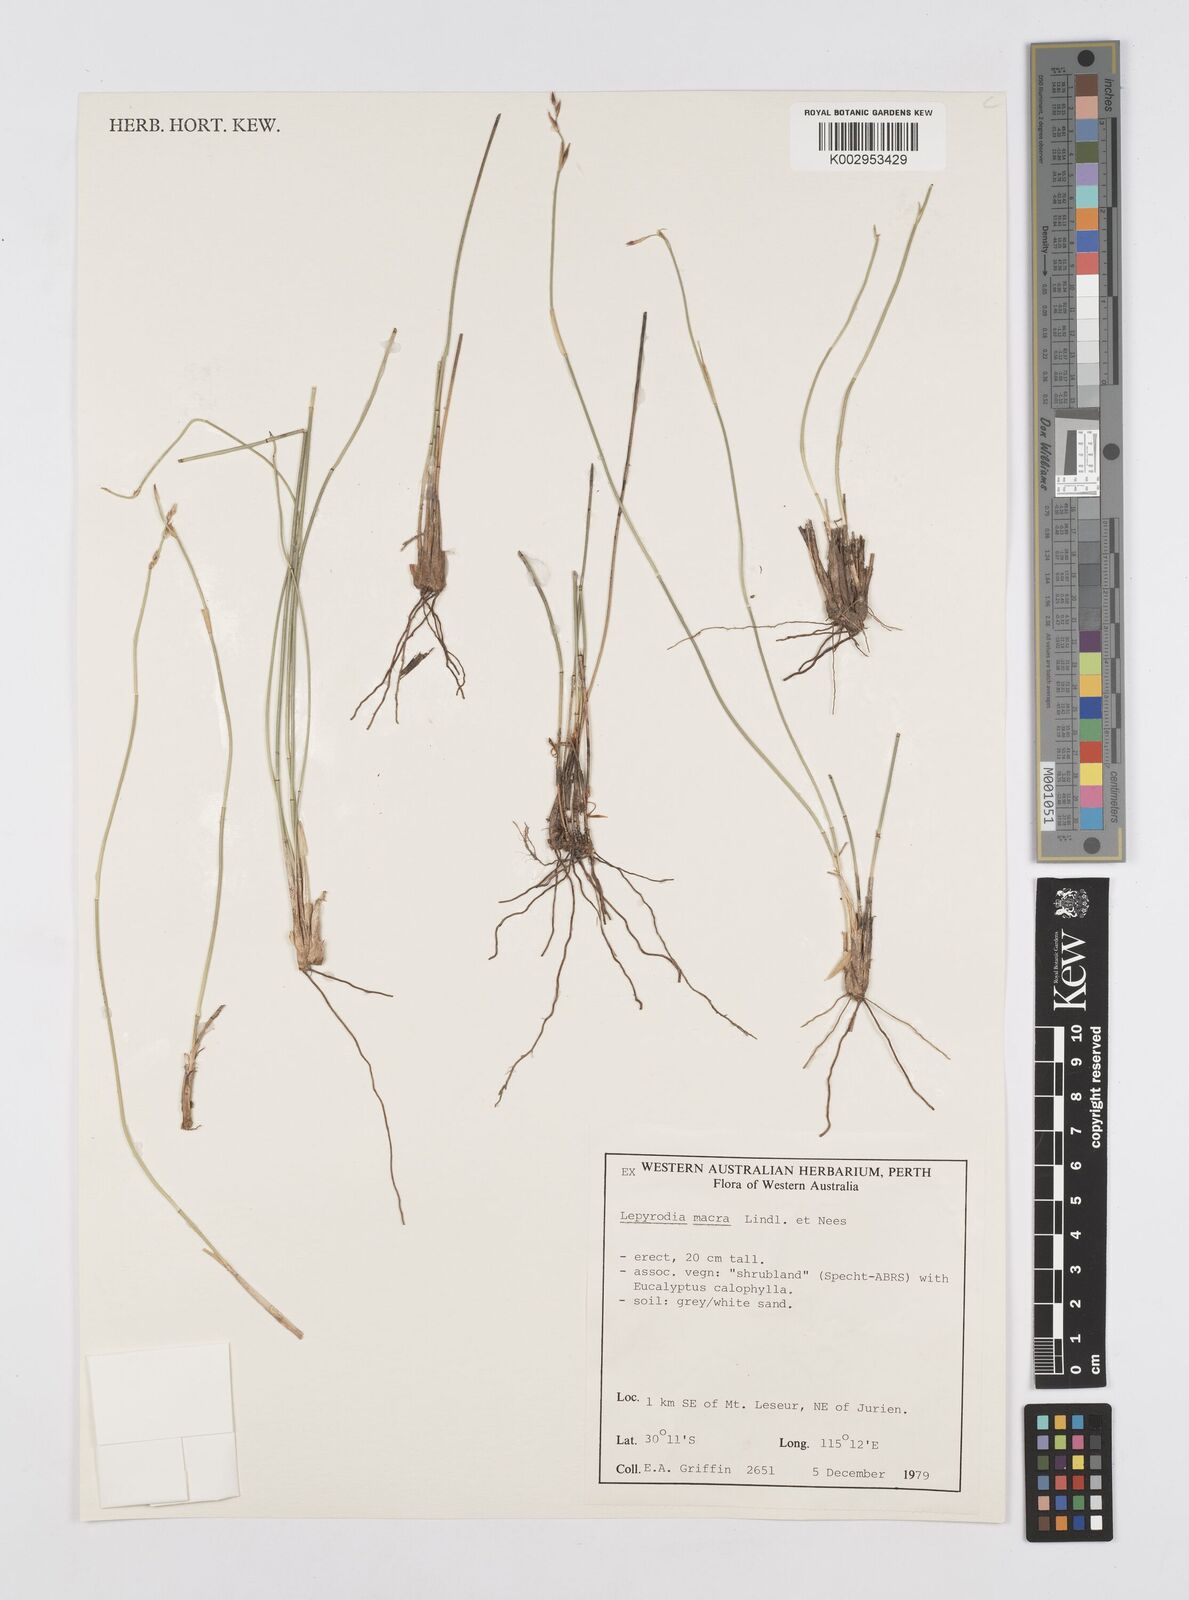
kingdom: Plantae
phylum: Tracheophyta
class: Liliopsida
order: Poales
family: Restionaceae
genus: Lepyrodia
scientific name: Lepyrodia macra
